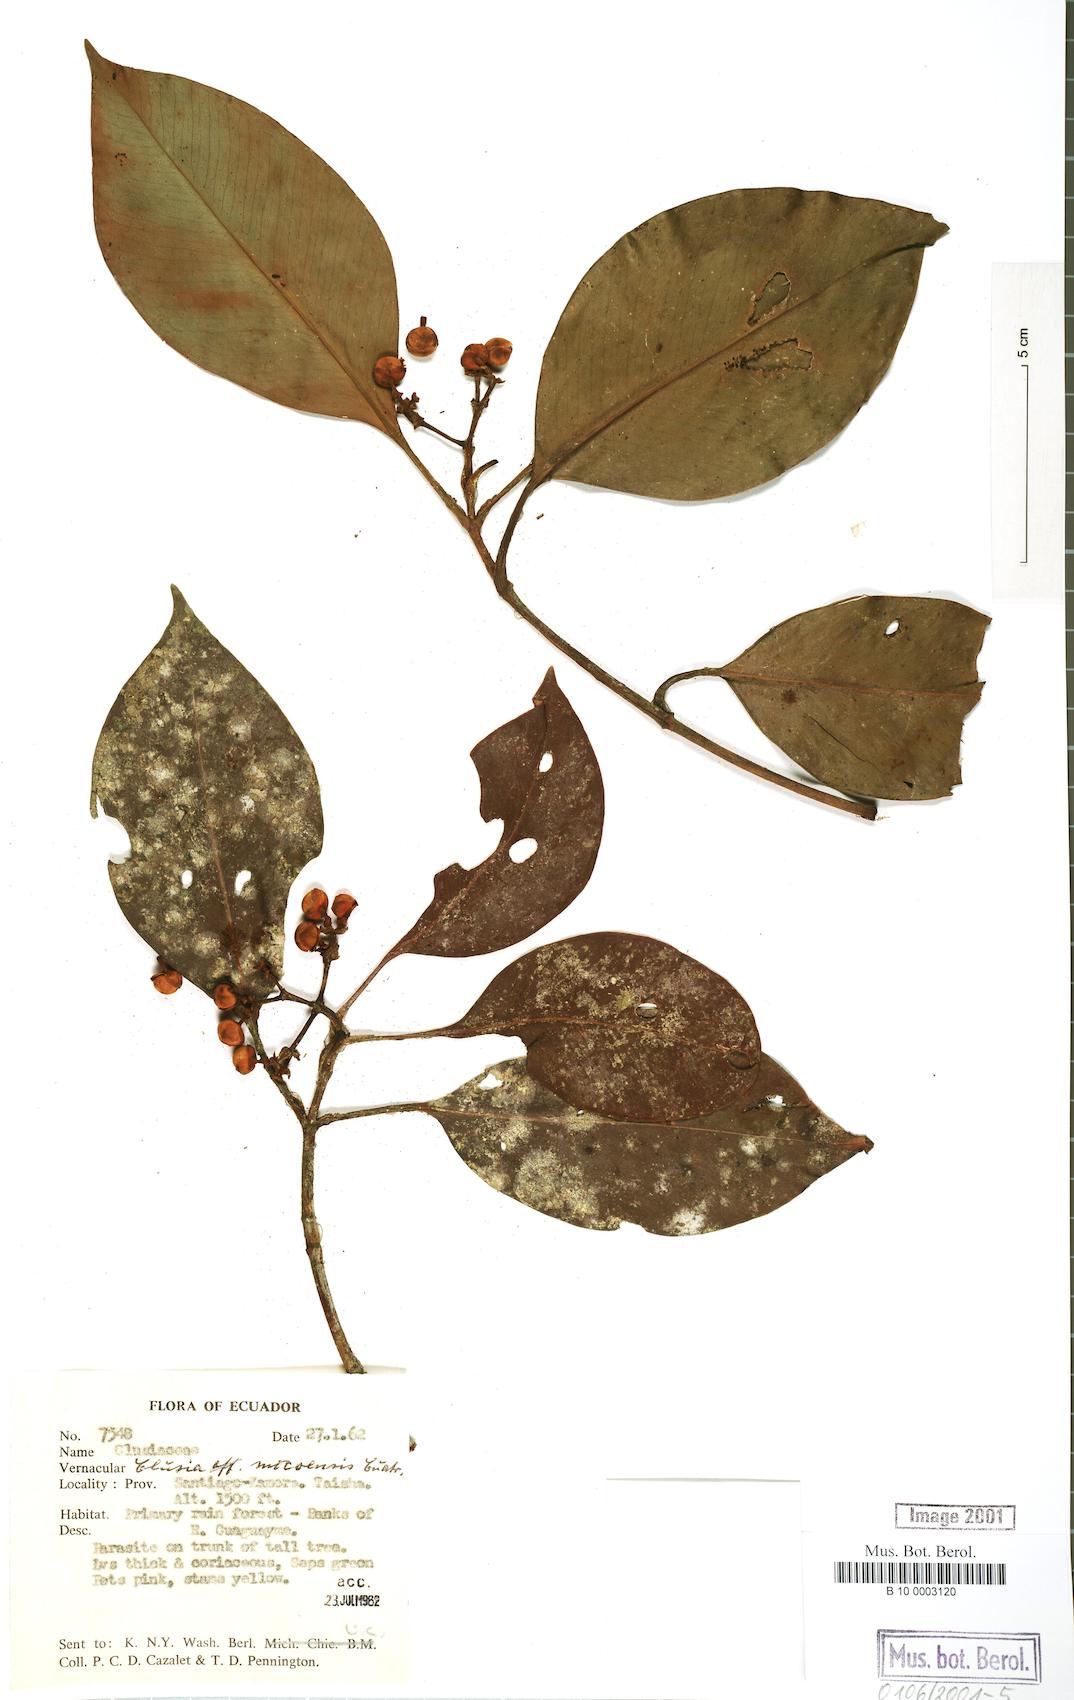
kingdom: Plantae
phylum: Tracheophyta
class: Magnoliopsida
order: Malpighiales
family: Clusiaceae
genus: Clusia
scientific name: Clusia mocoensis
